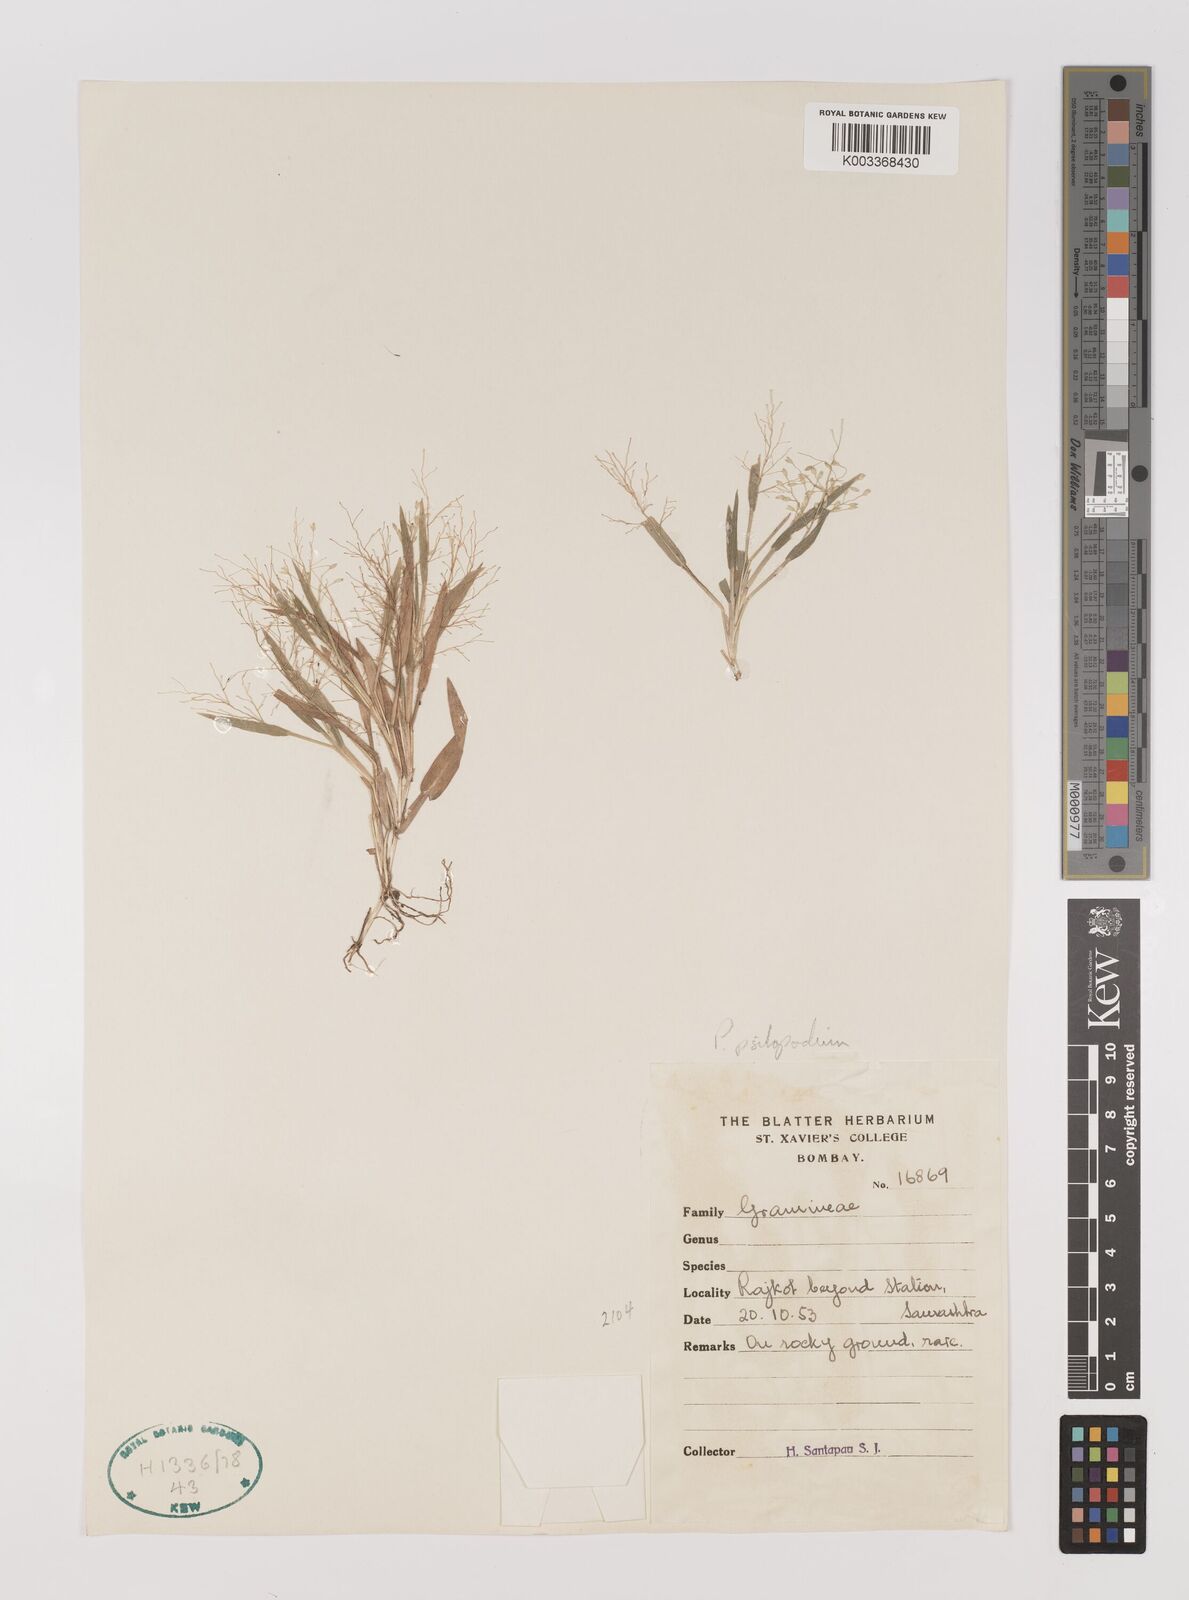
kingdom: Plantae
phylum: Tracheophyta
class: Liliopsida
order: Poales
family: Poaceae
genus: Panicum
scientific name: Panicum sumatrense
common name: Little millet
